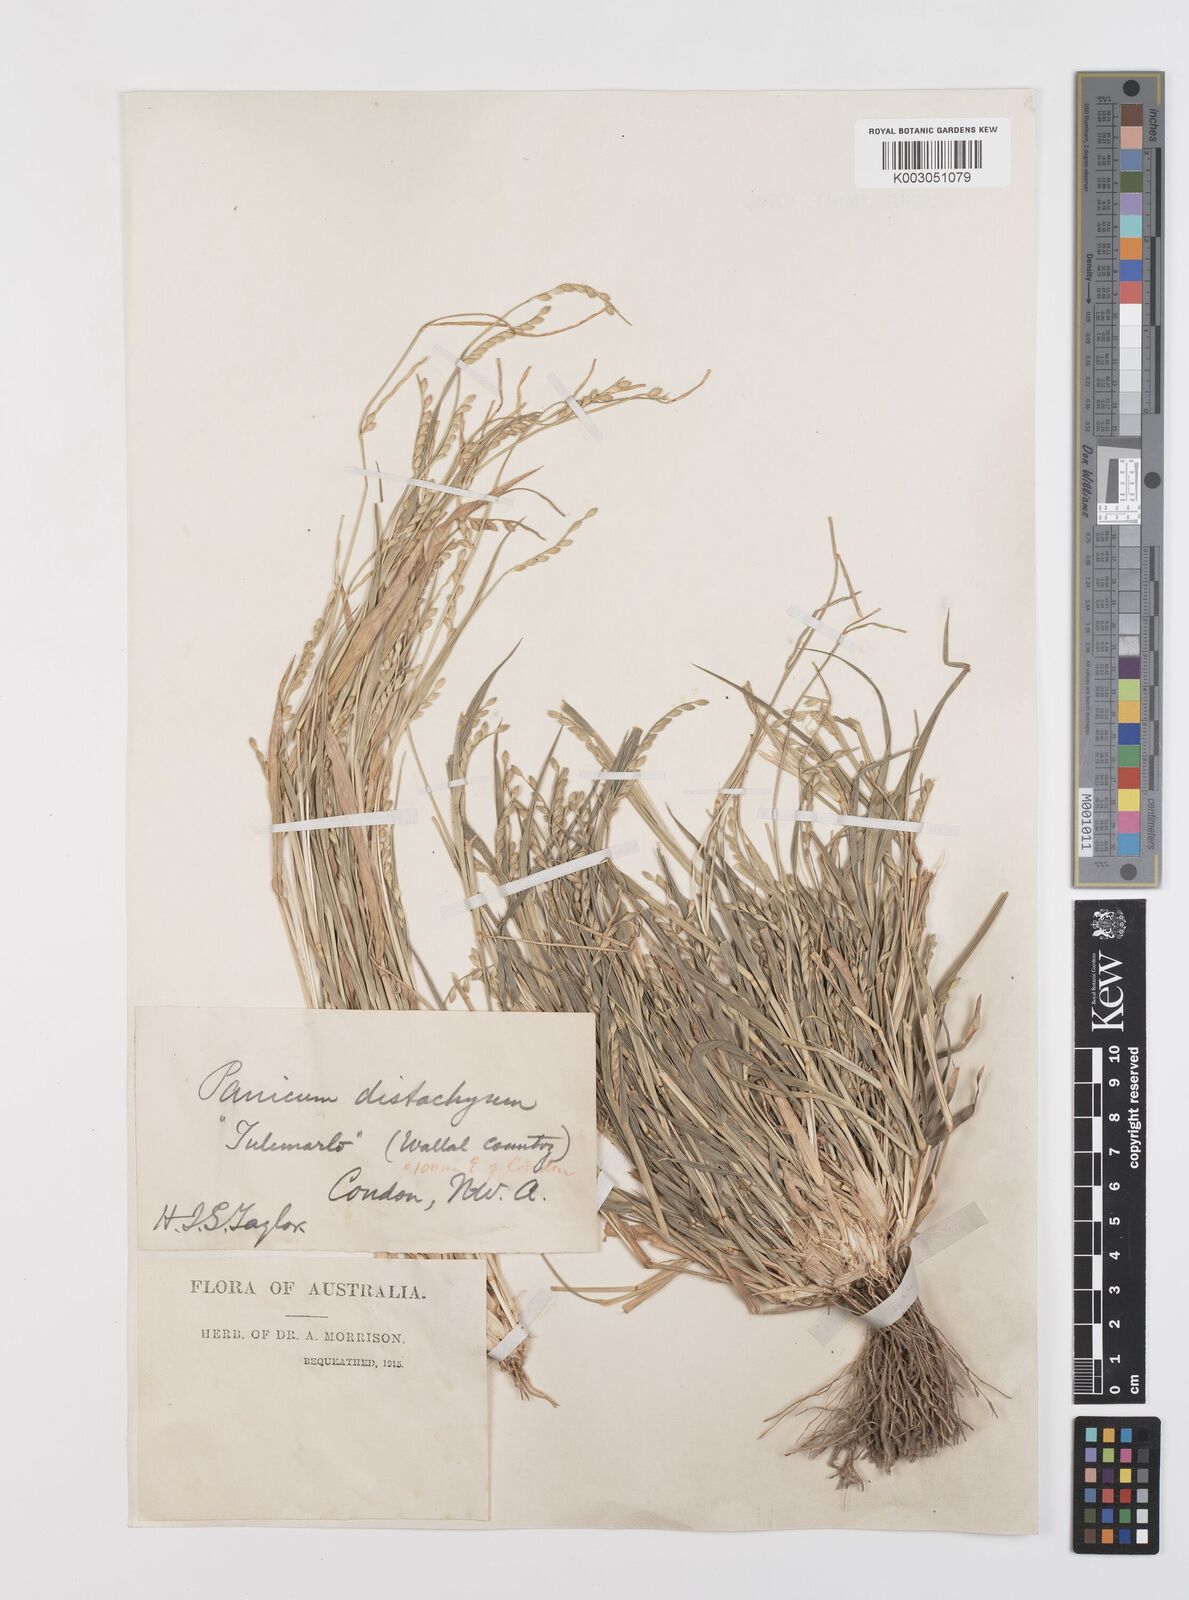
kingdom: Plantae
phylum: Tracheophyta
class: Liliopsida
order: Poales
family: Poaceae
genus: Urochloa
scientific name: Urochloa piligera
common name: Wattle signalgrass
